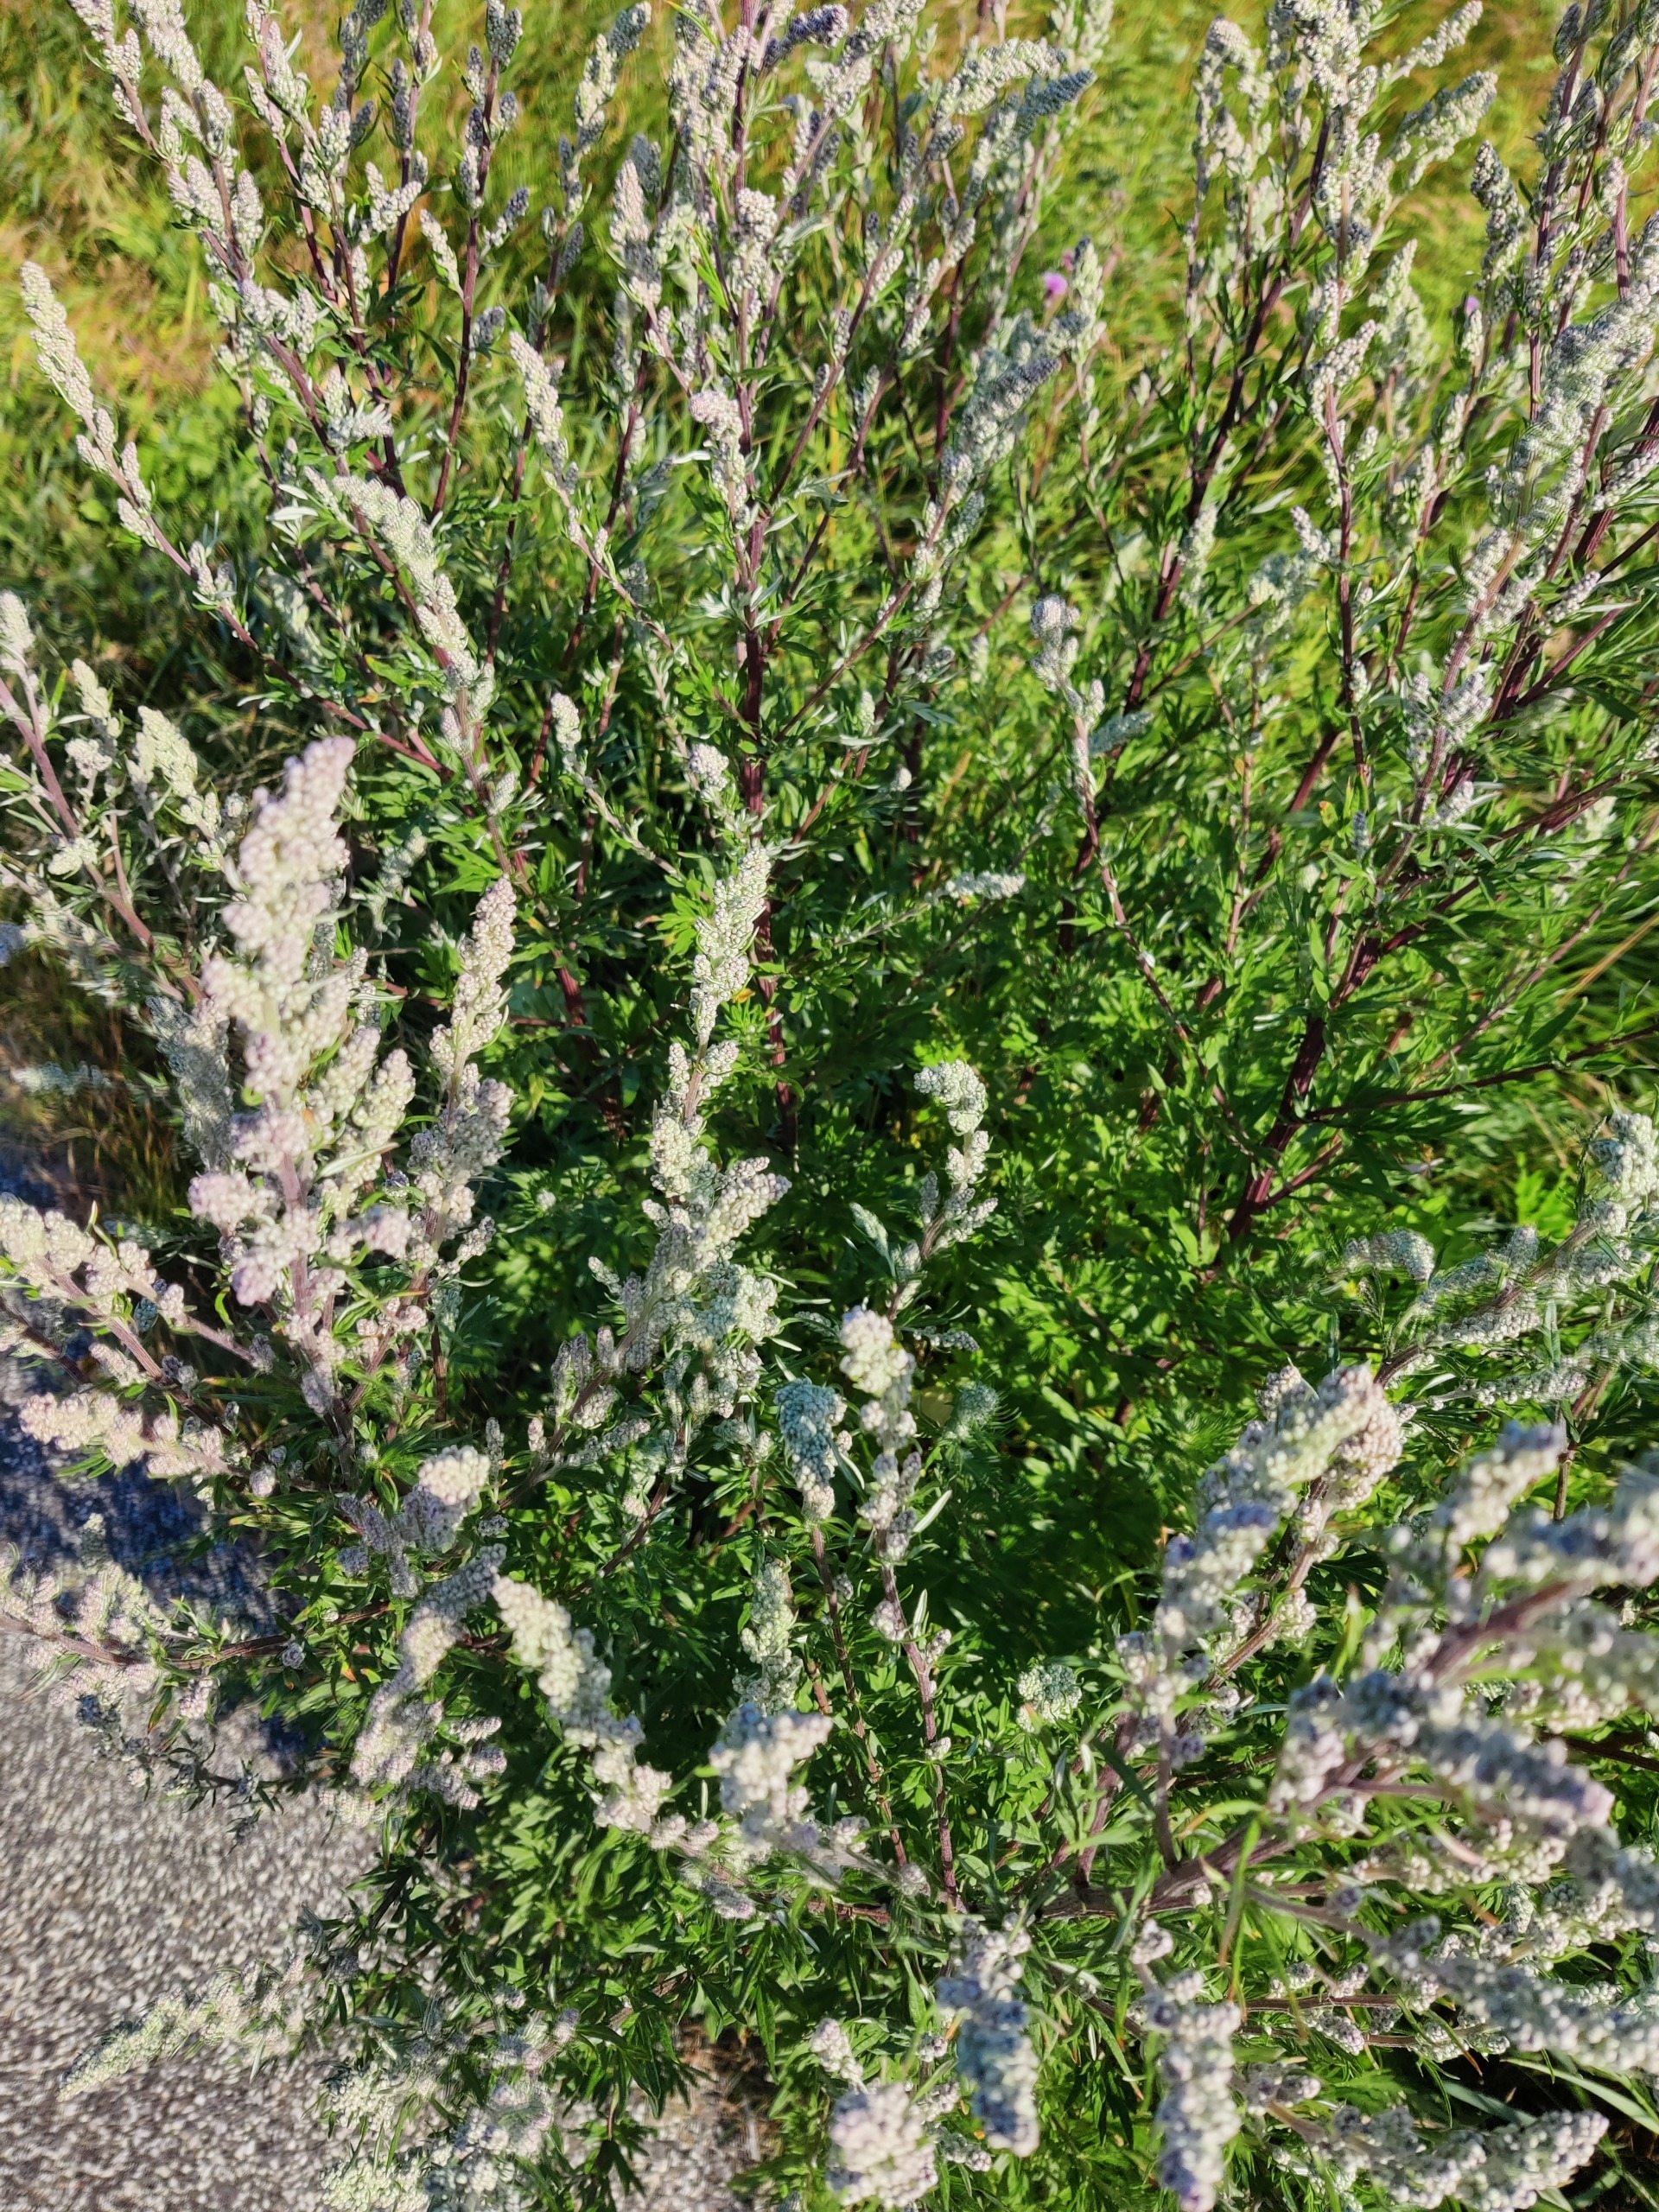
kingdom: Plantae
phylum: Tracheophyta
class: Magnoliopsida
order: Asterales
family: Asteraceae
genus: Artemisia
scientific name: Artemisia vulgaris
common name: Grå-bynke
